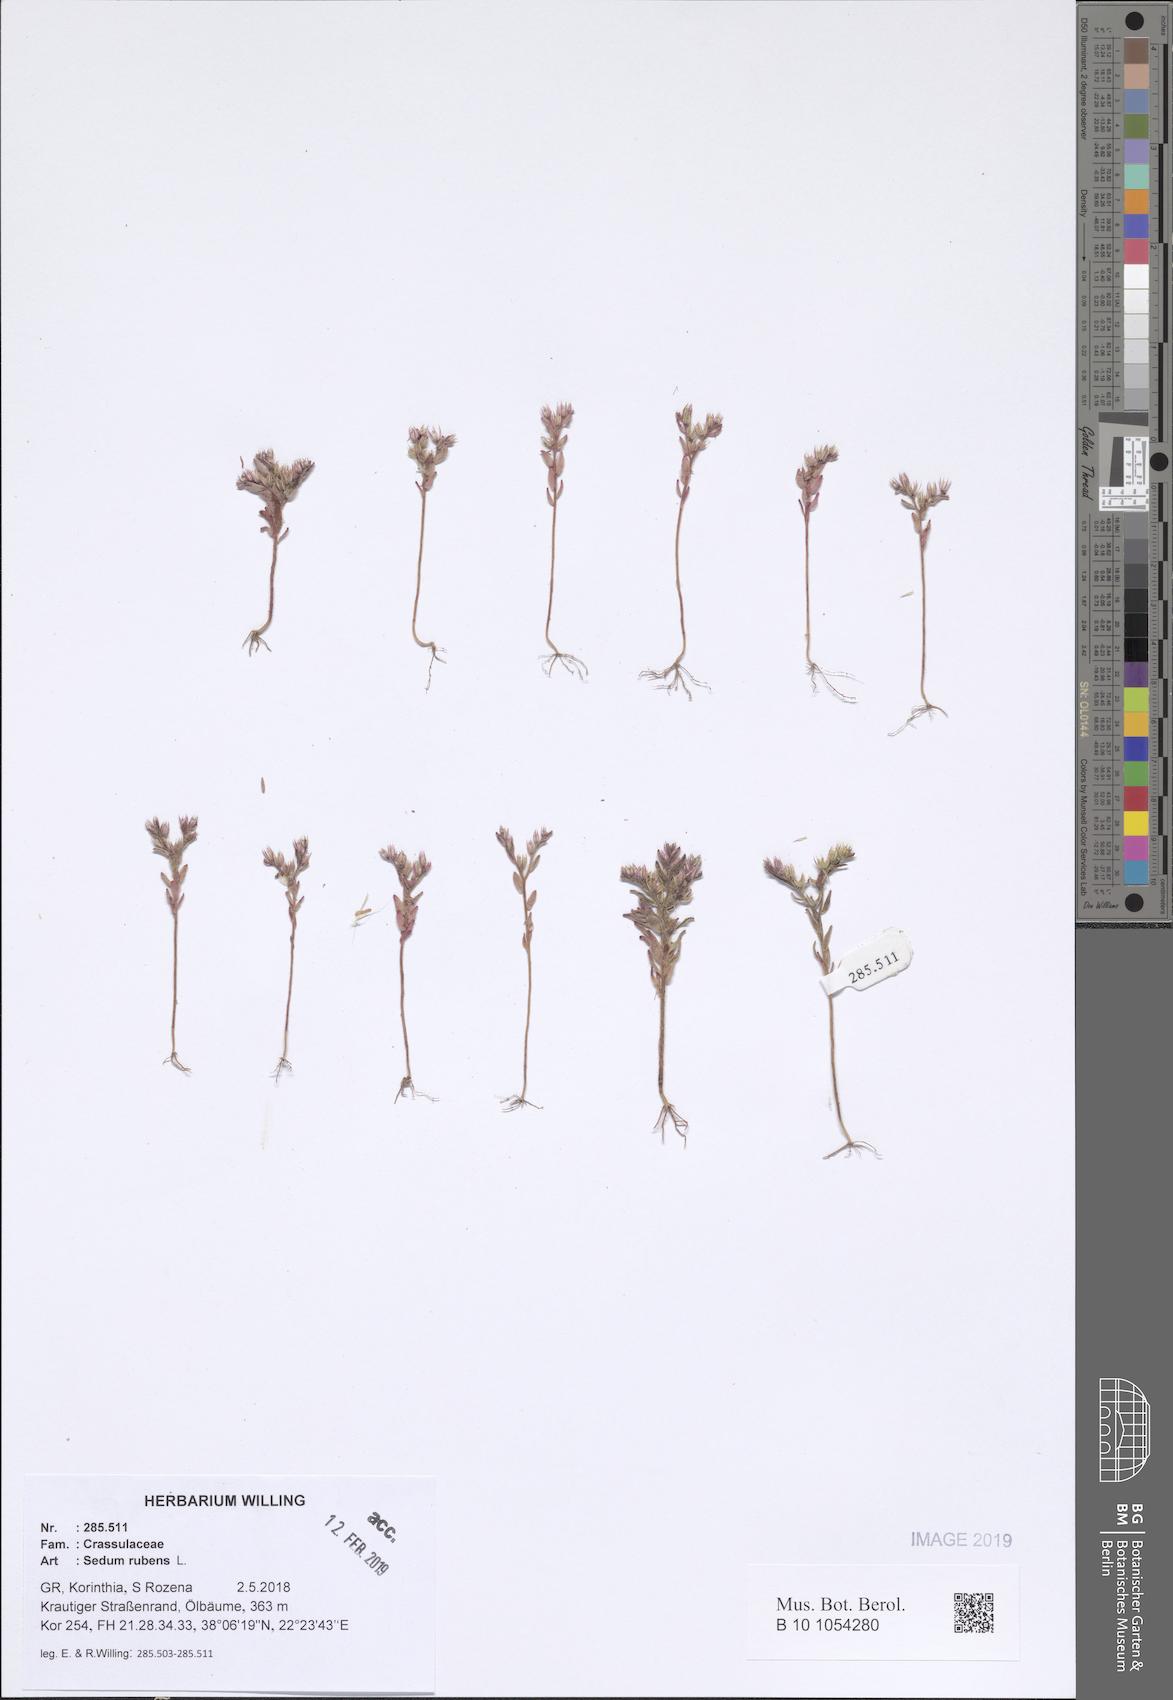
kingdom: Plantae
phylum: Tracheophyta
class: Magnoliopsida
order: Saxifragales
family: Crassulaceae
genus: Sedum
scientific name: Sedum rubens
